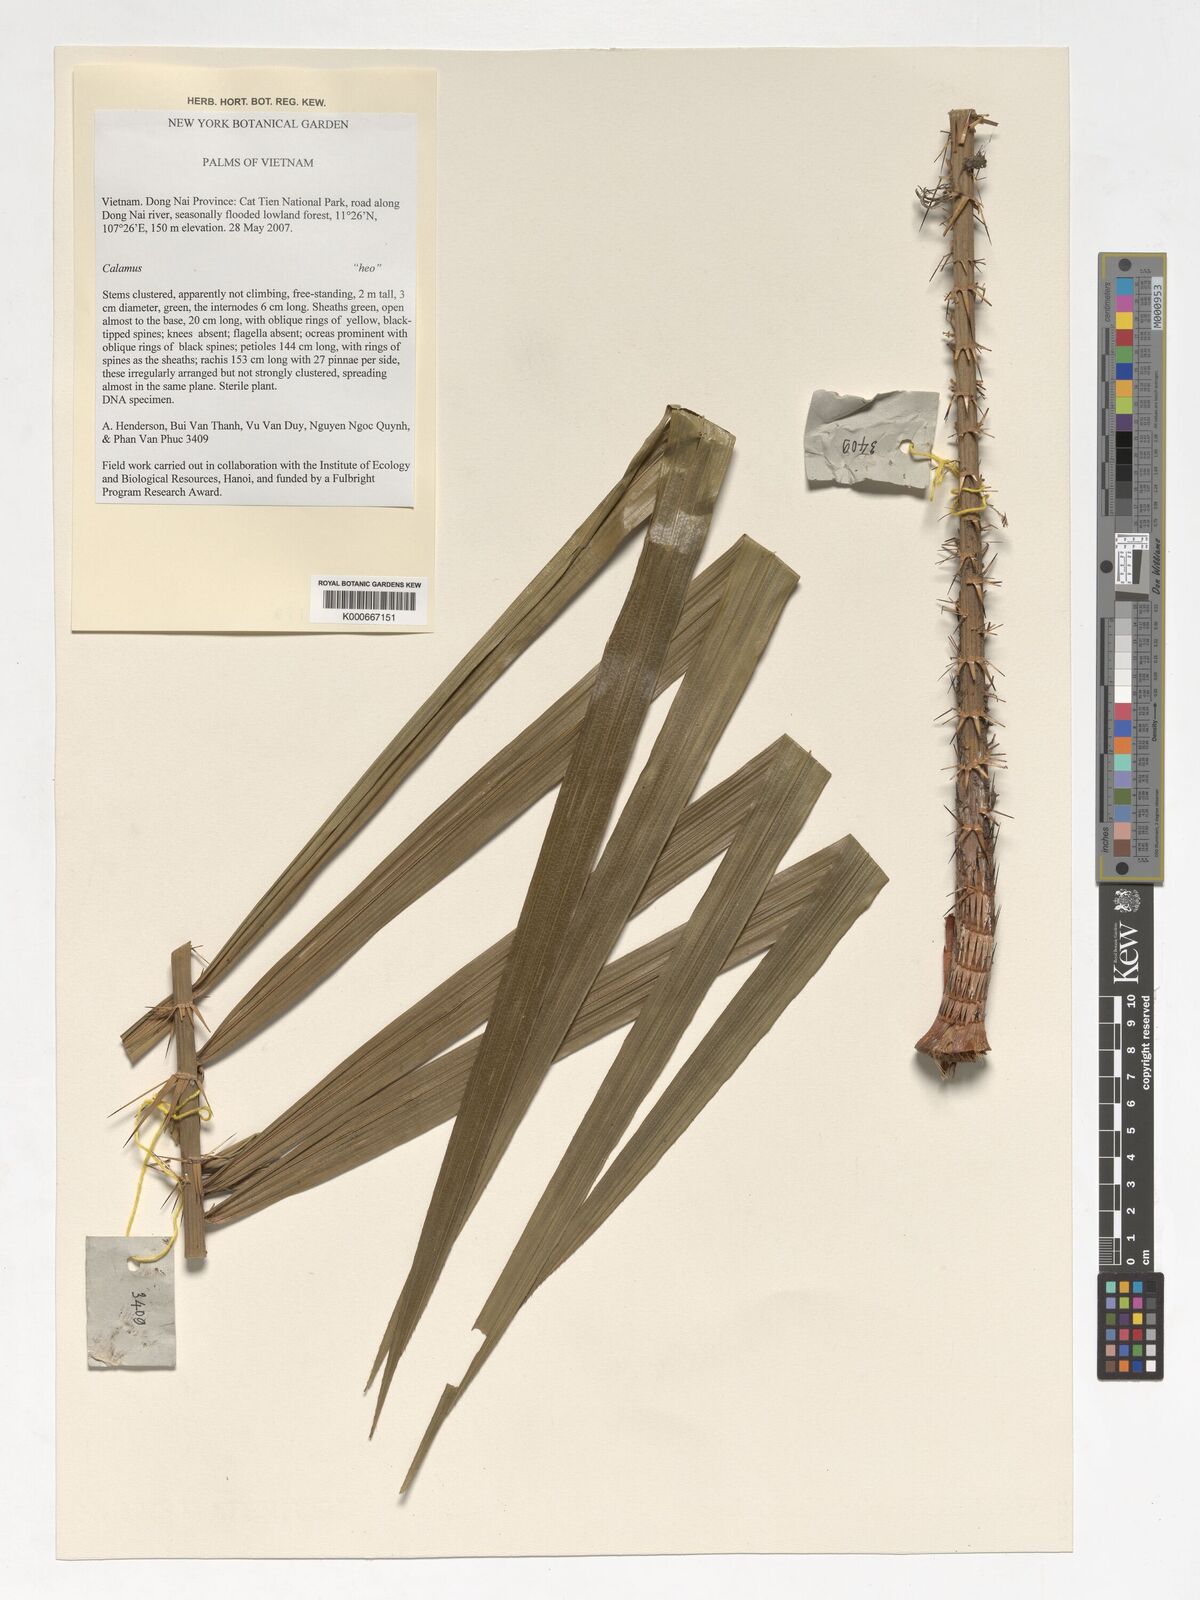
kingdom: Plantae
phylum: Tracheophyta
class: Liliopsida
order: Arecales
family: Arecaceae
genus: Calamus
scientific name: Calamus
